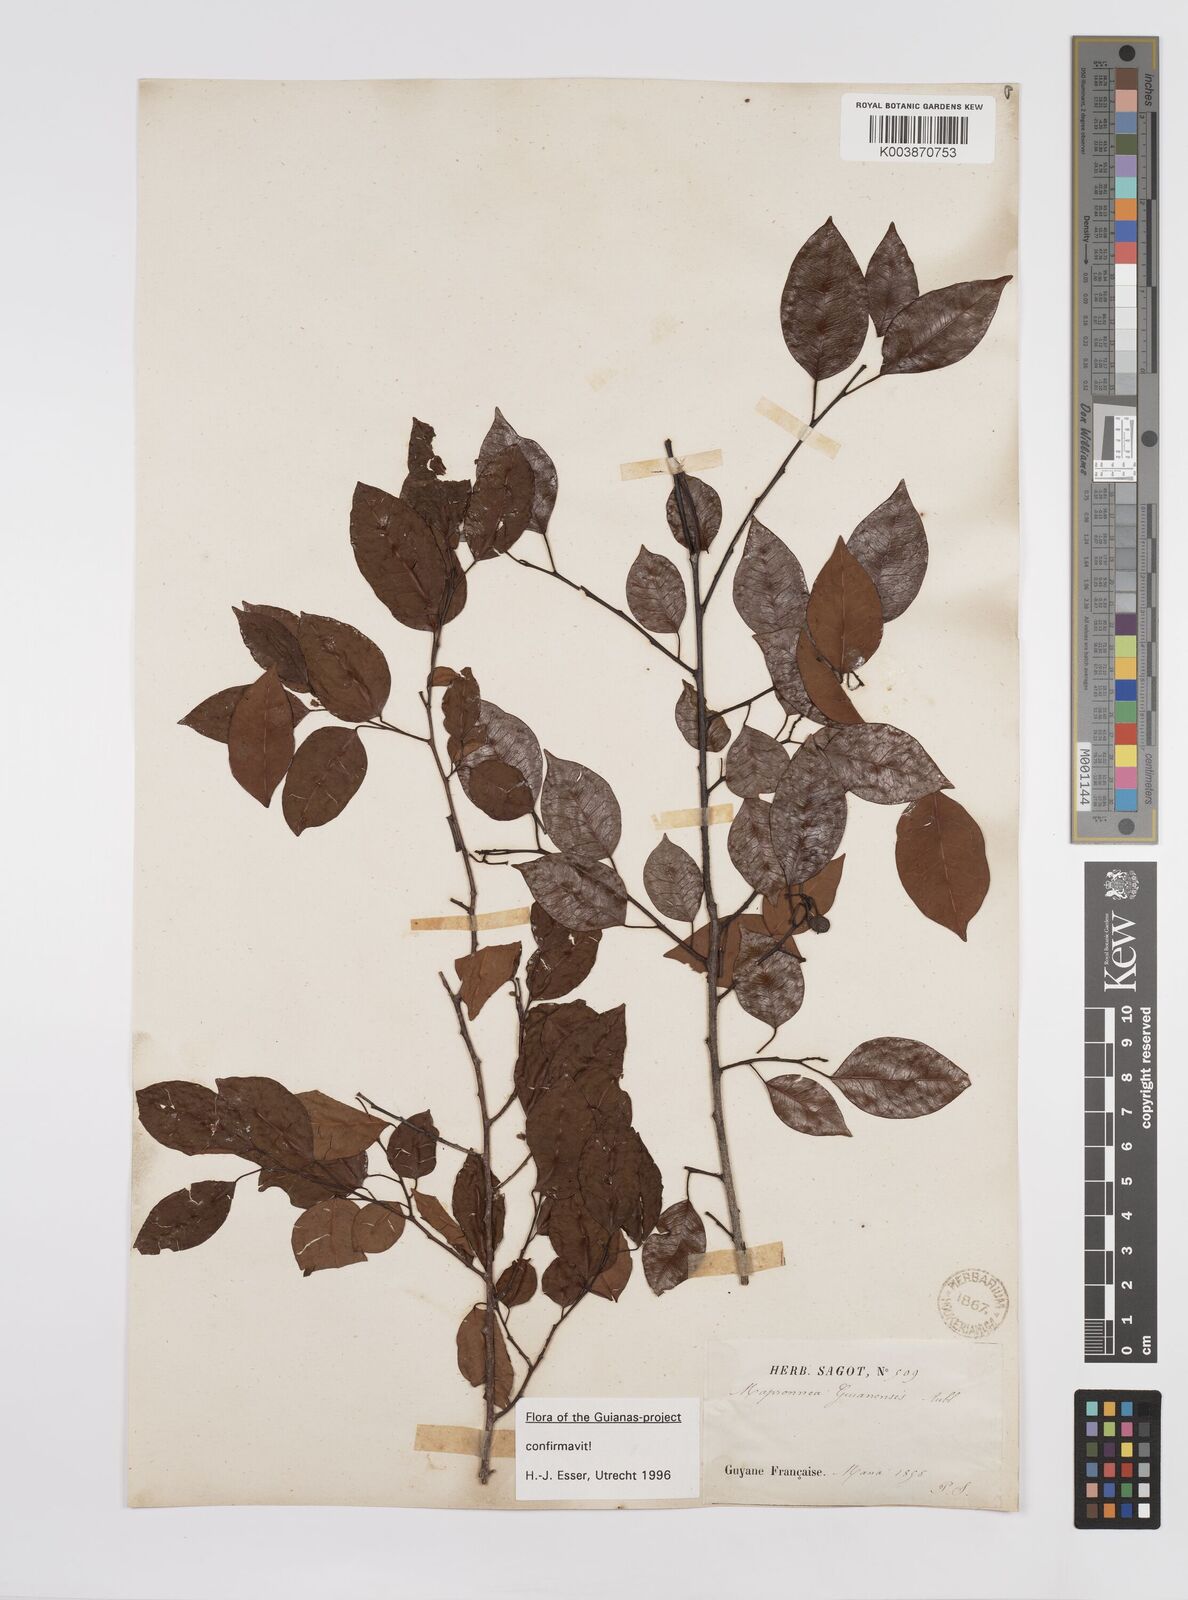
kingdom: Plantae
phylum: Tracheophyta
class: Magnoliopsida
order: Malpighiales
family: Euphorbiaceae
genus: Maprounea
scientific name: Maprounea guianensis
